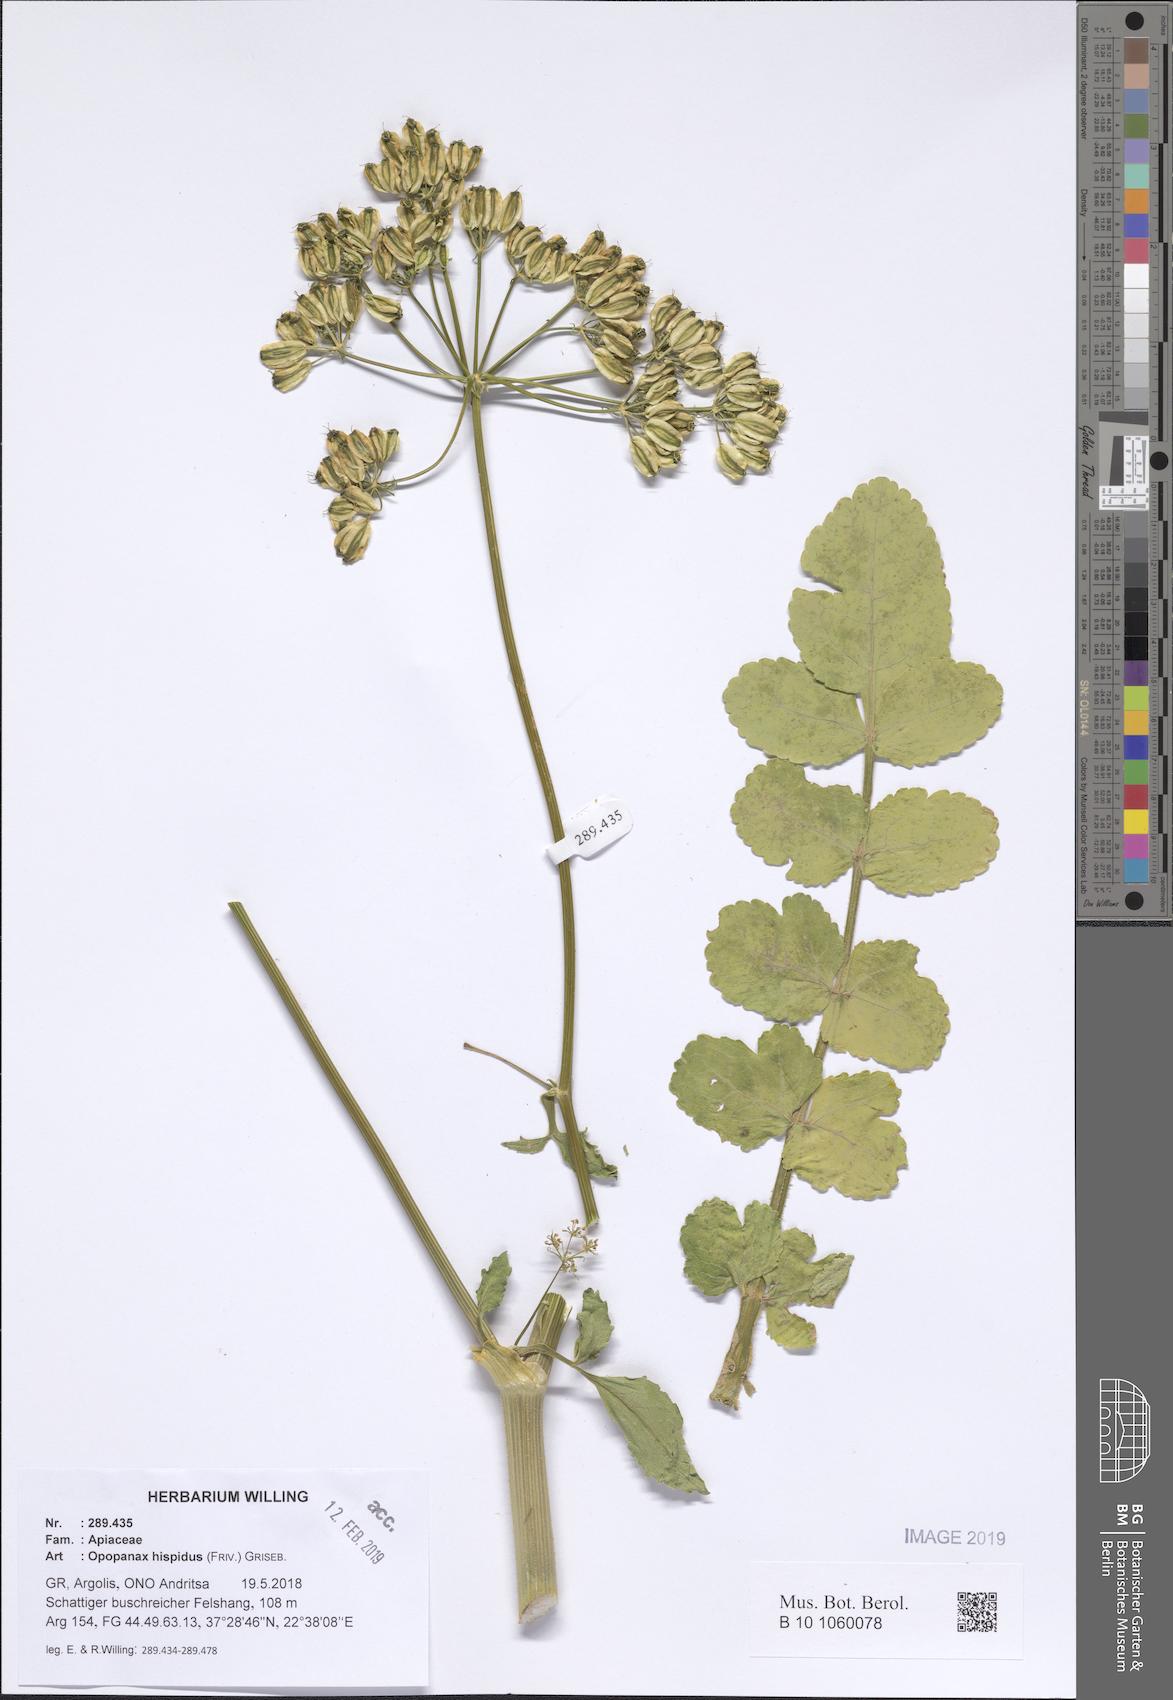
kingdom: Plantae
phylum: Tracheophyta
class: Magnoliopsida
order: Apiales
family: Apiaceae
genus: Opopanax
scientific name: Opopanax hispidus
